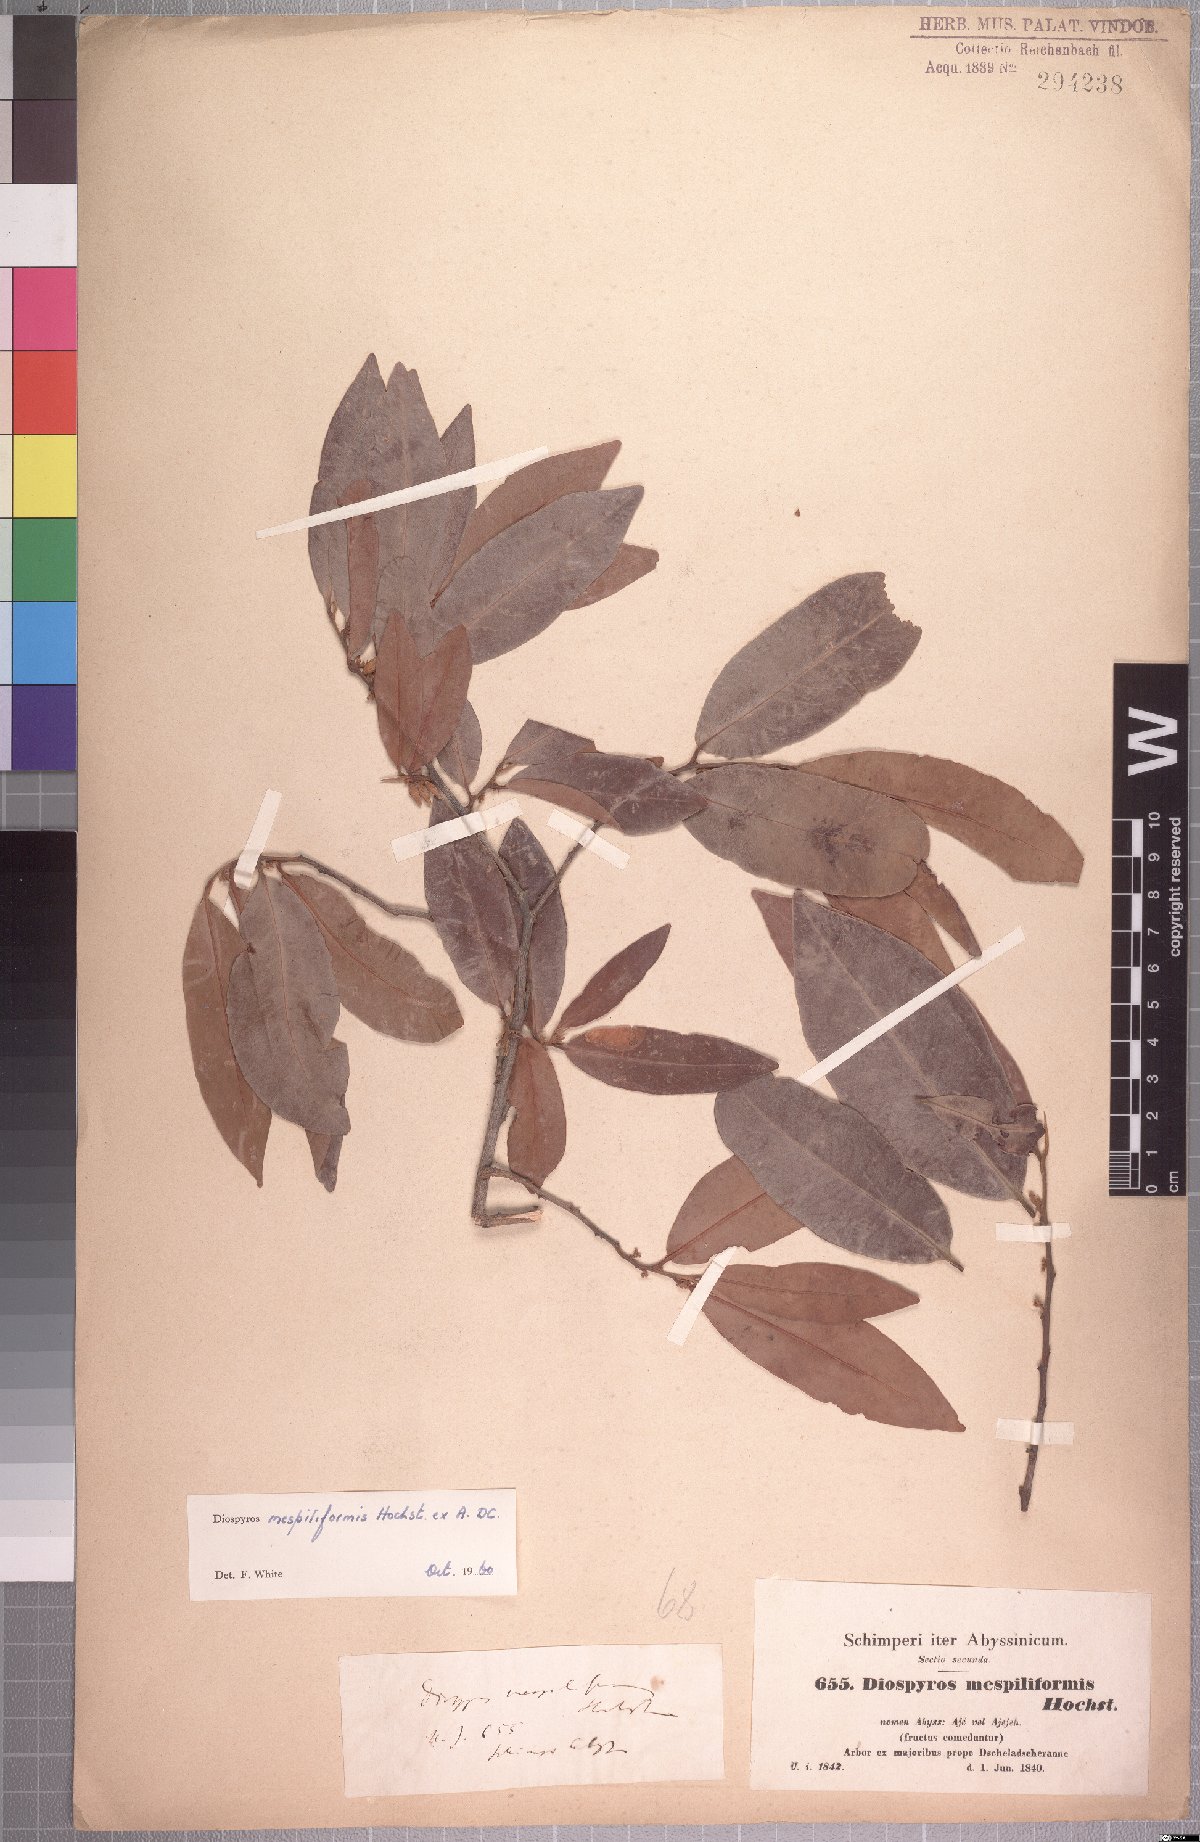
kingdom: Plantae
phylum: Tracheophyta
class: Magnoliopsida
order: Ericales
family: Ebenaceae
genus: Diospyros
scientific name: Diospyros mespiliformis
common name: Ebony diospyros
